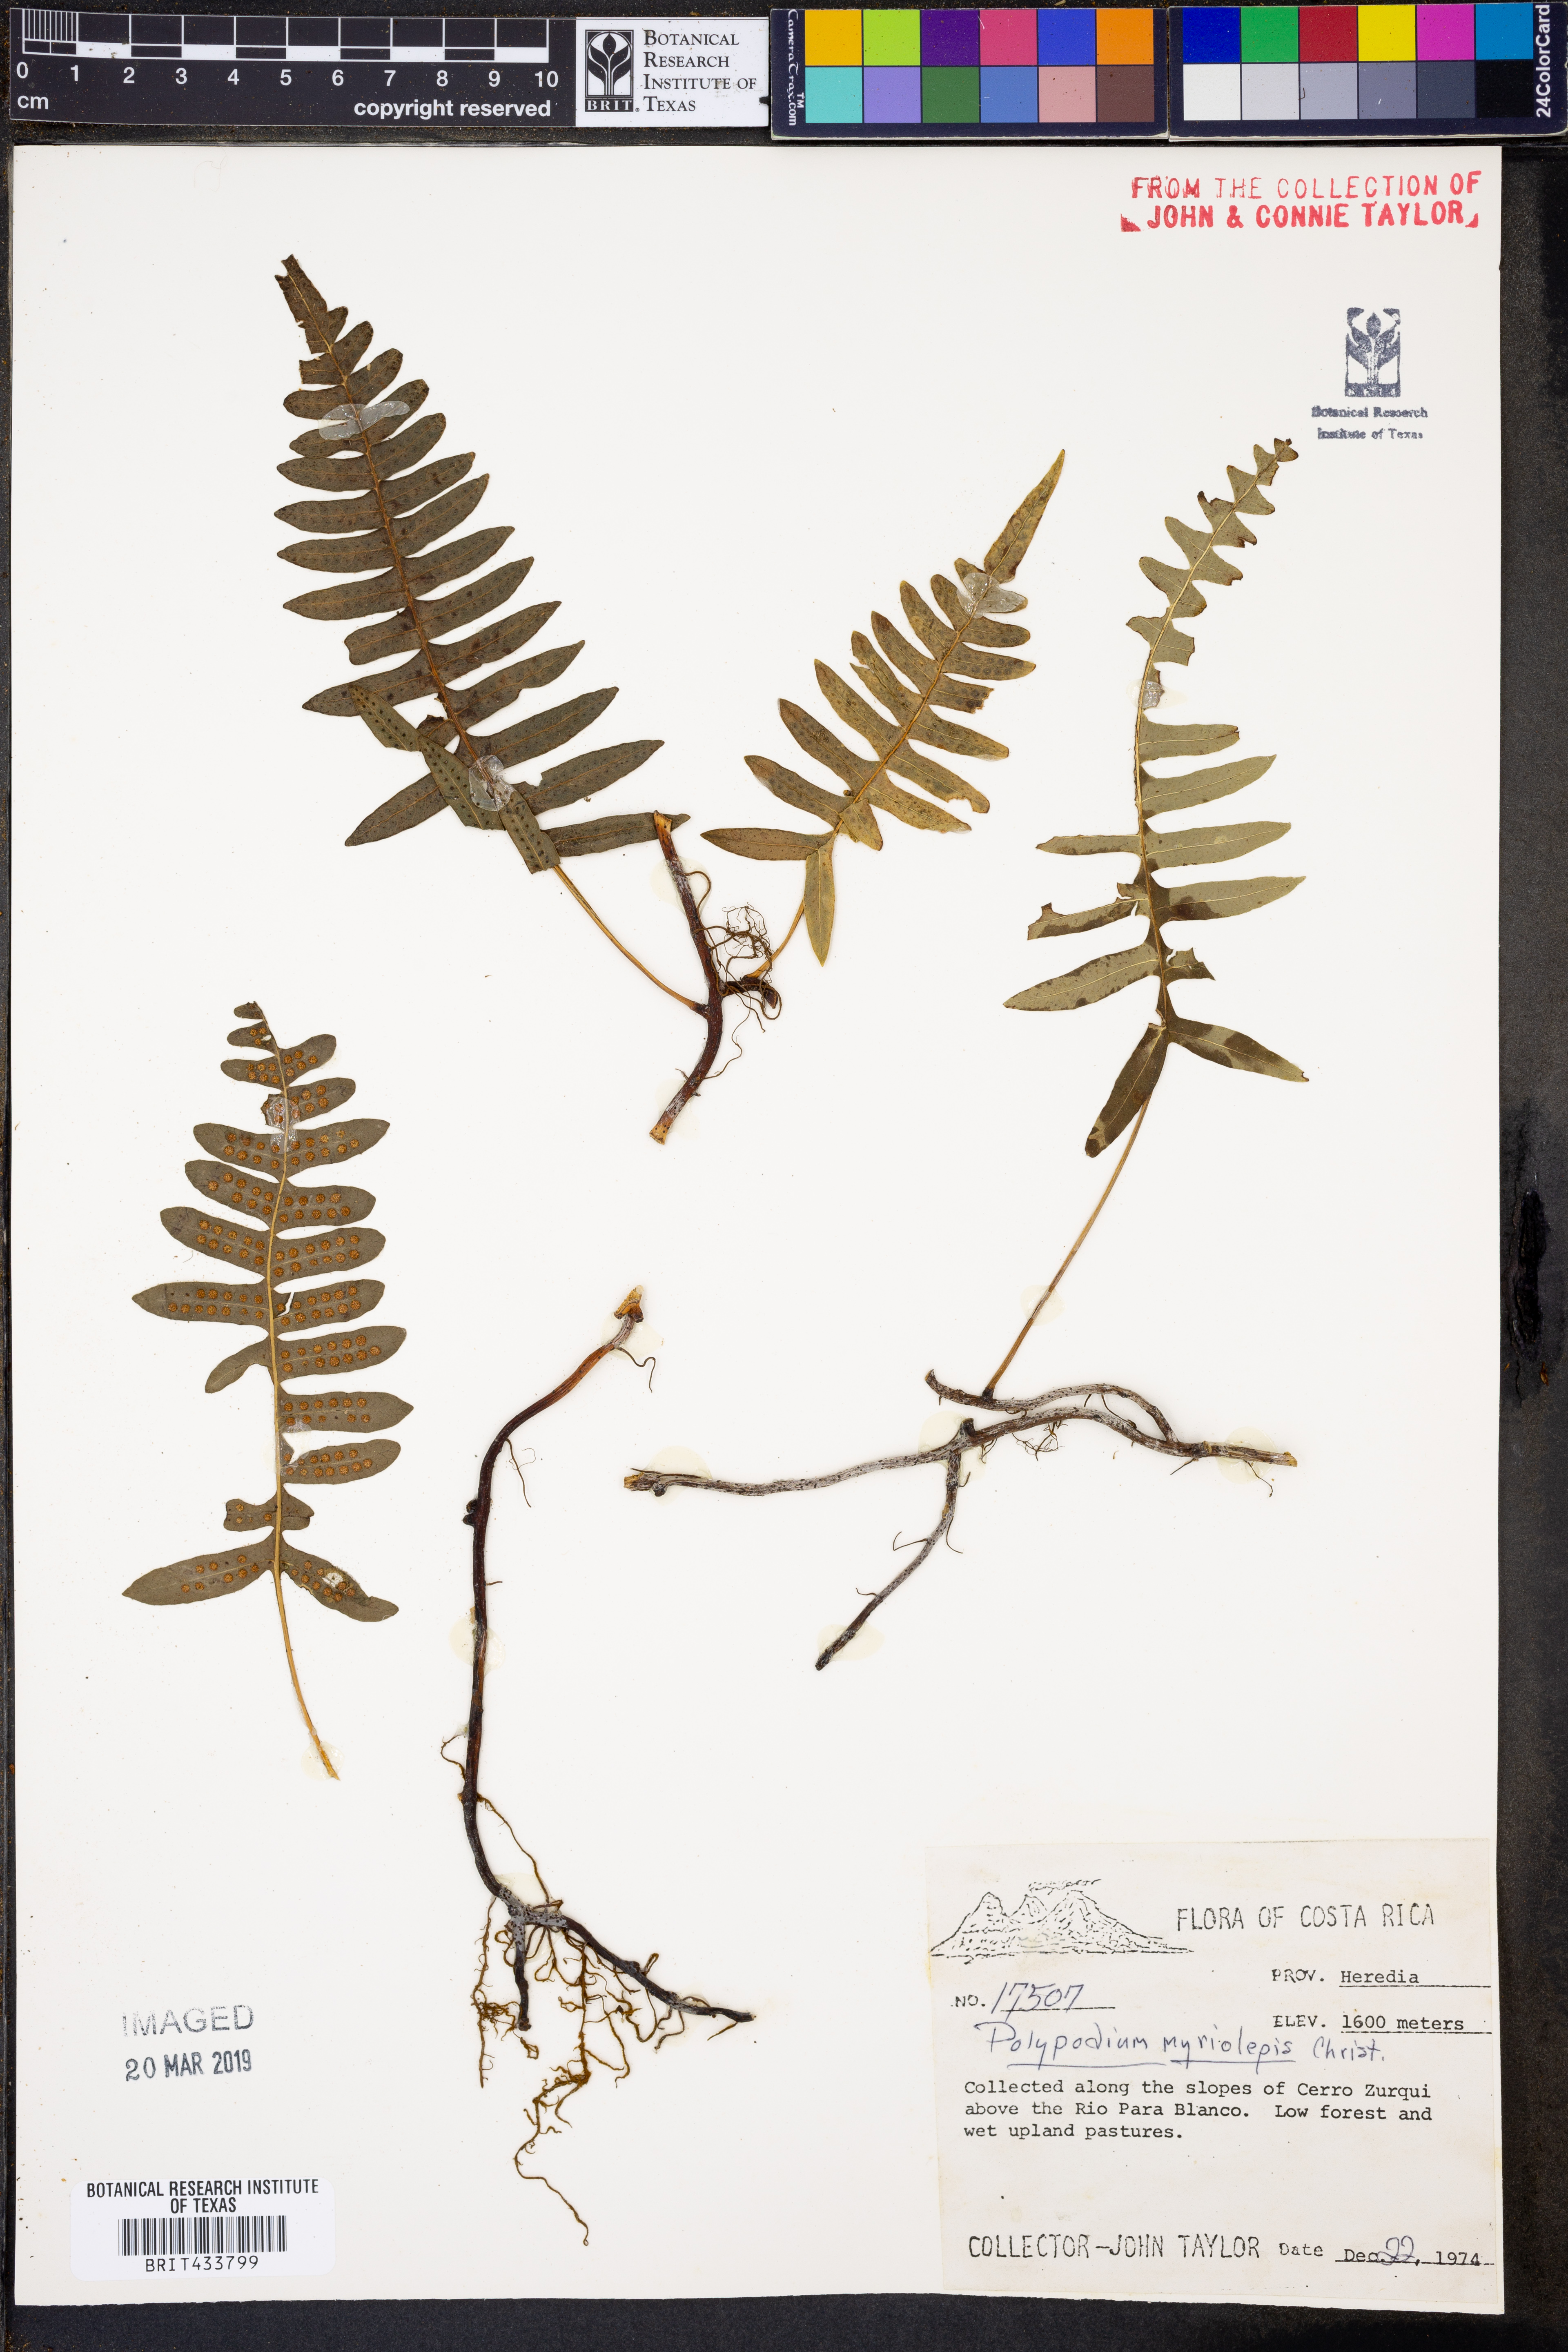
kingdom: Plantae
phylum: Tracheophyta
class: Polypodiopsida
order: Polypodiales
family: Polypodiaceae
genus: Pleopeltis
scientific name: Pleopeltis myriolepis
